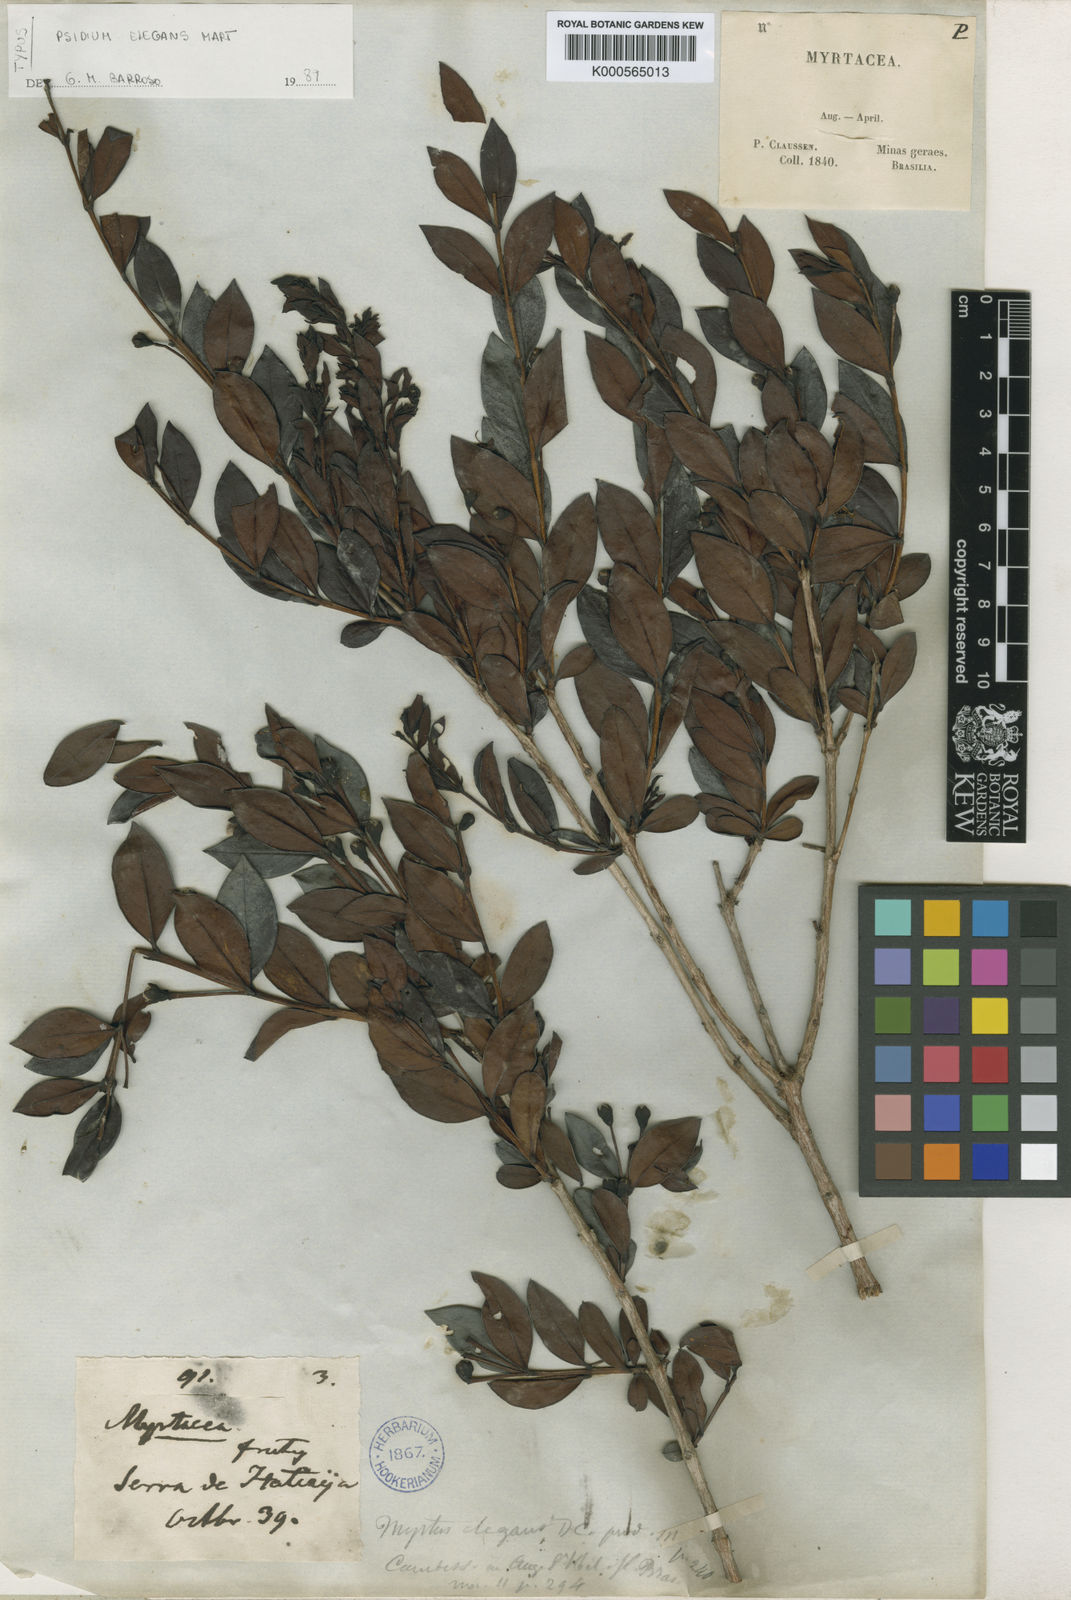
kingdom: Plantae
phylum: Tracheophyta
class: Magnoliopsida
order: Myrtales
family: Myrtaceae
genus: Accara
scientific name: Accara elegans
